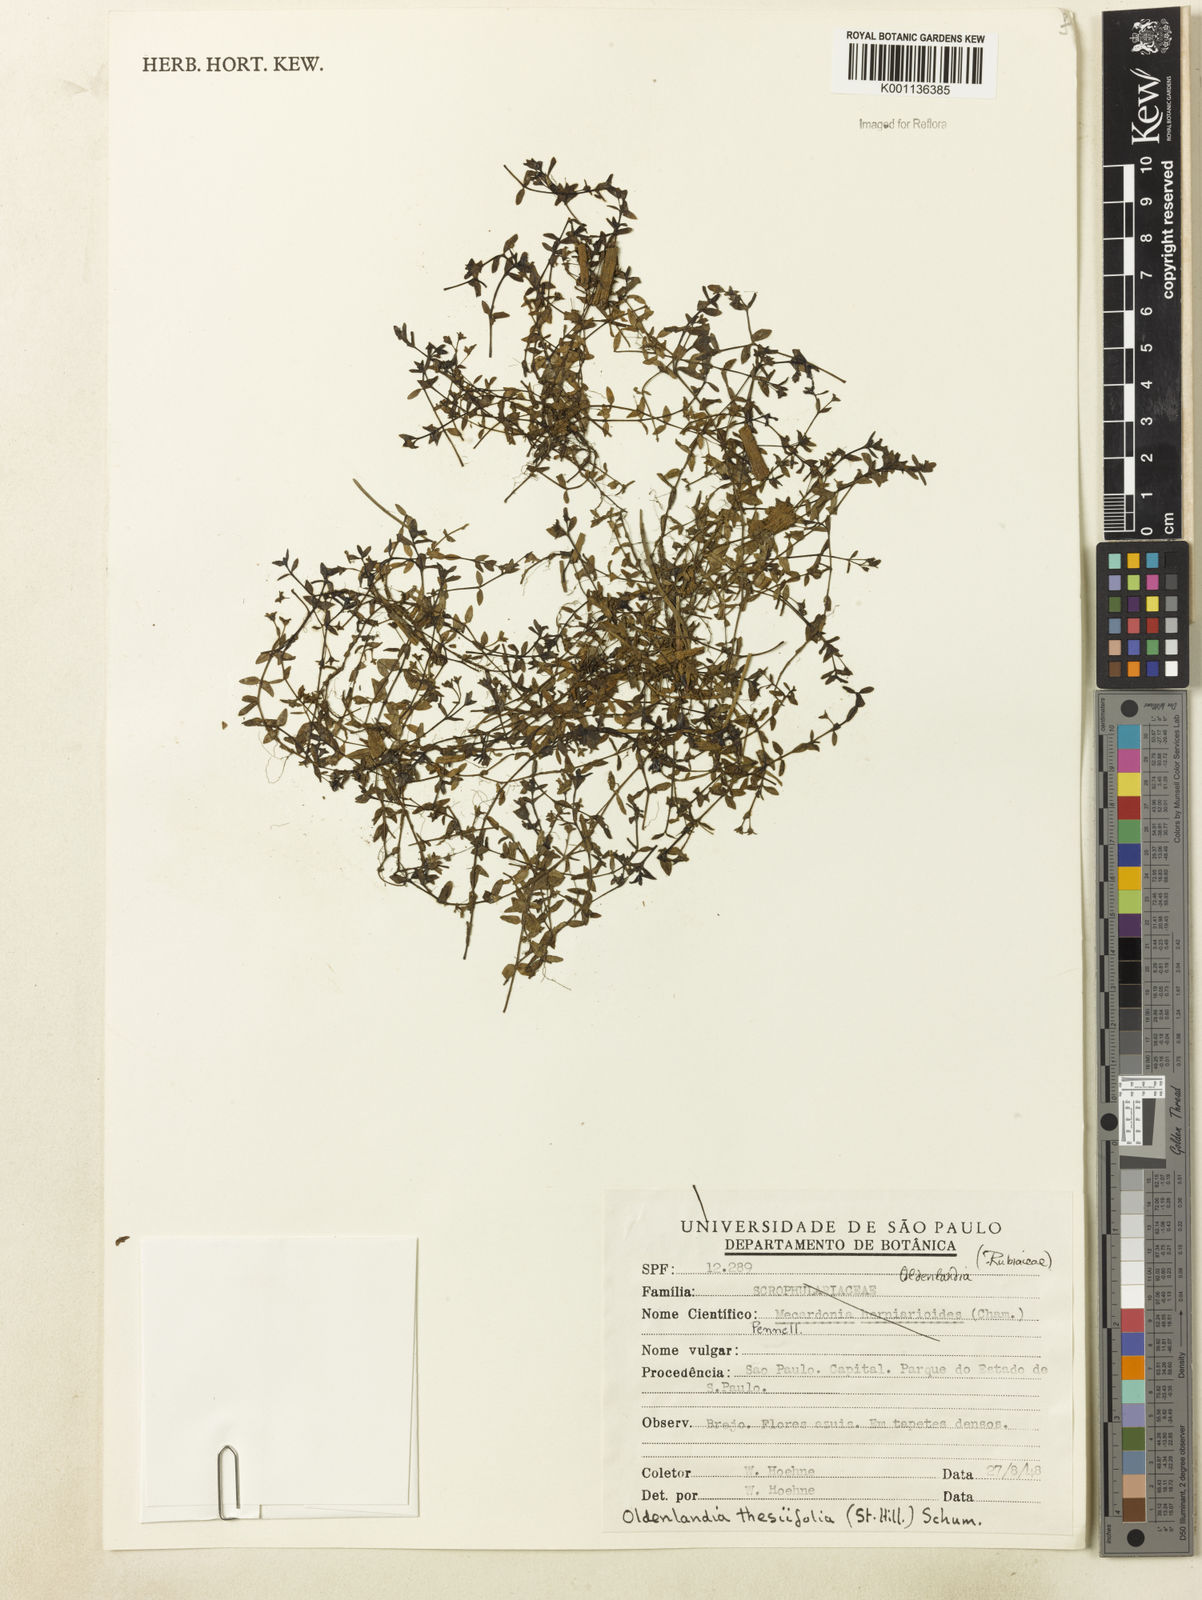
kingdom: Plantae
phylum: Tracheophyta
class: Magnoliopsida
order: Gentianales
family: Rubiaceae
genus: Oldenlandia
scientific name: Oldenlandia salzmannii
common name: Salzmann's mille graines
